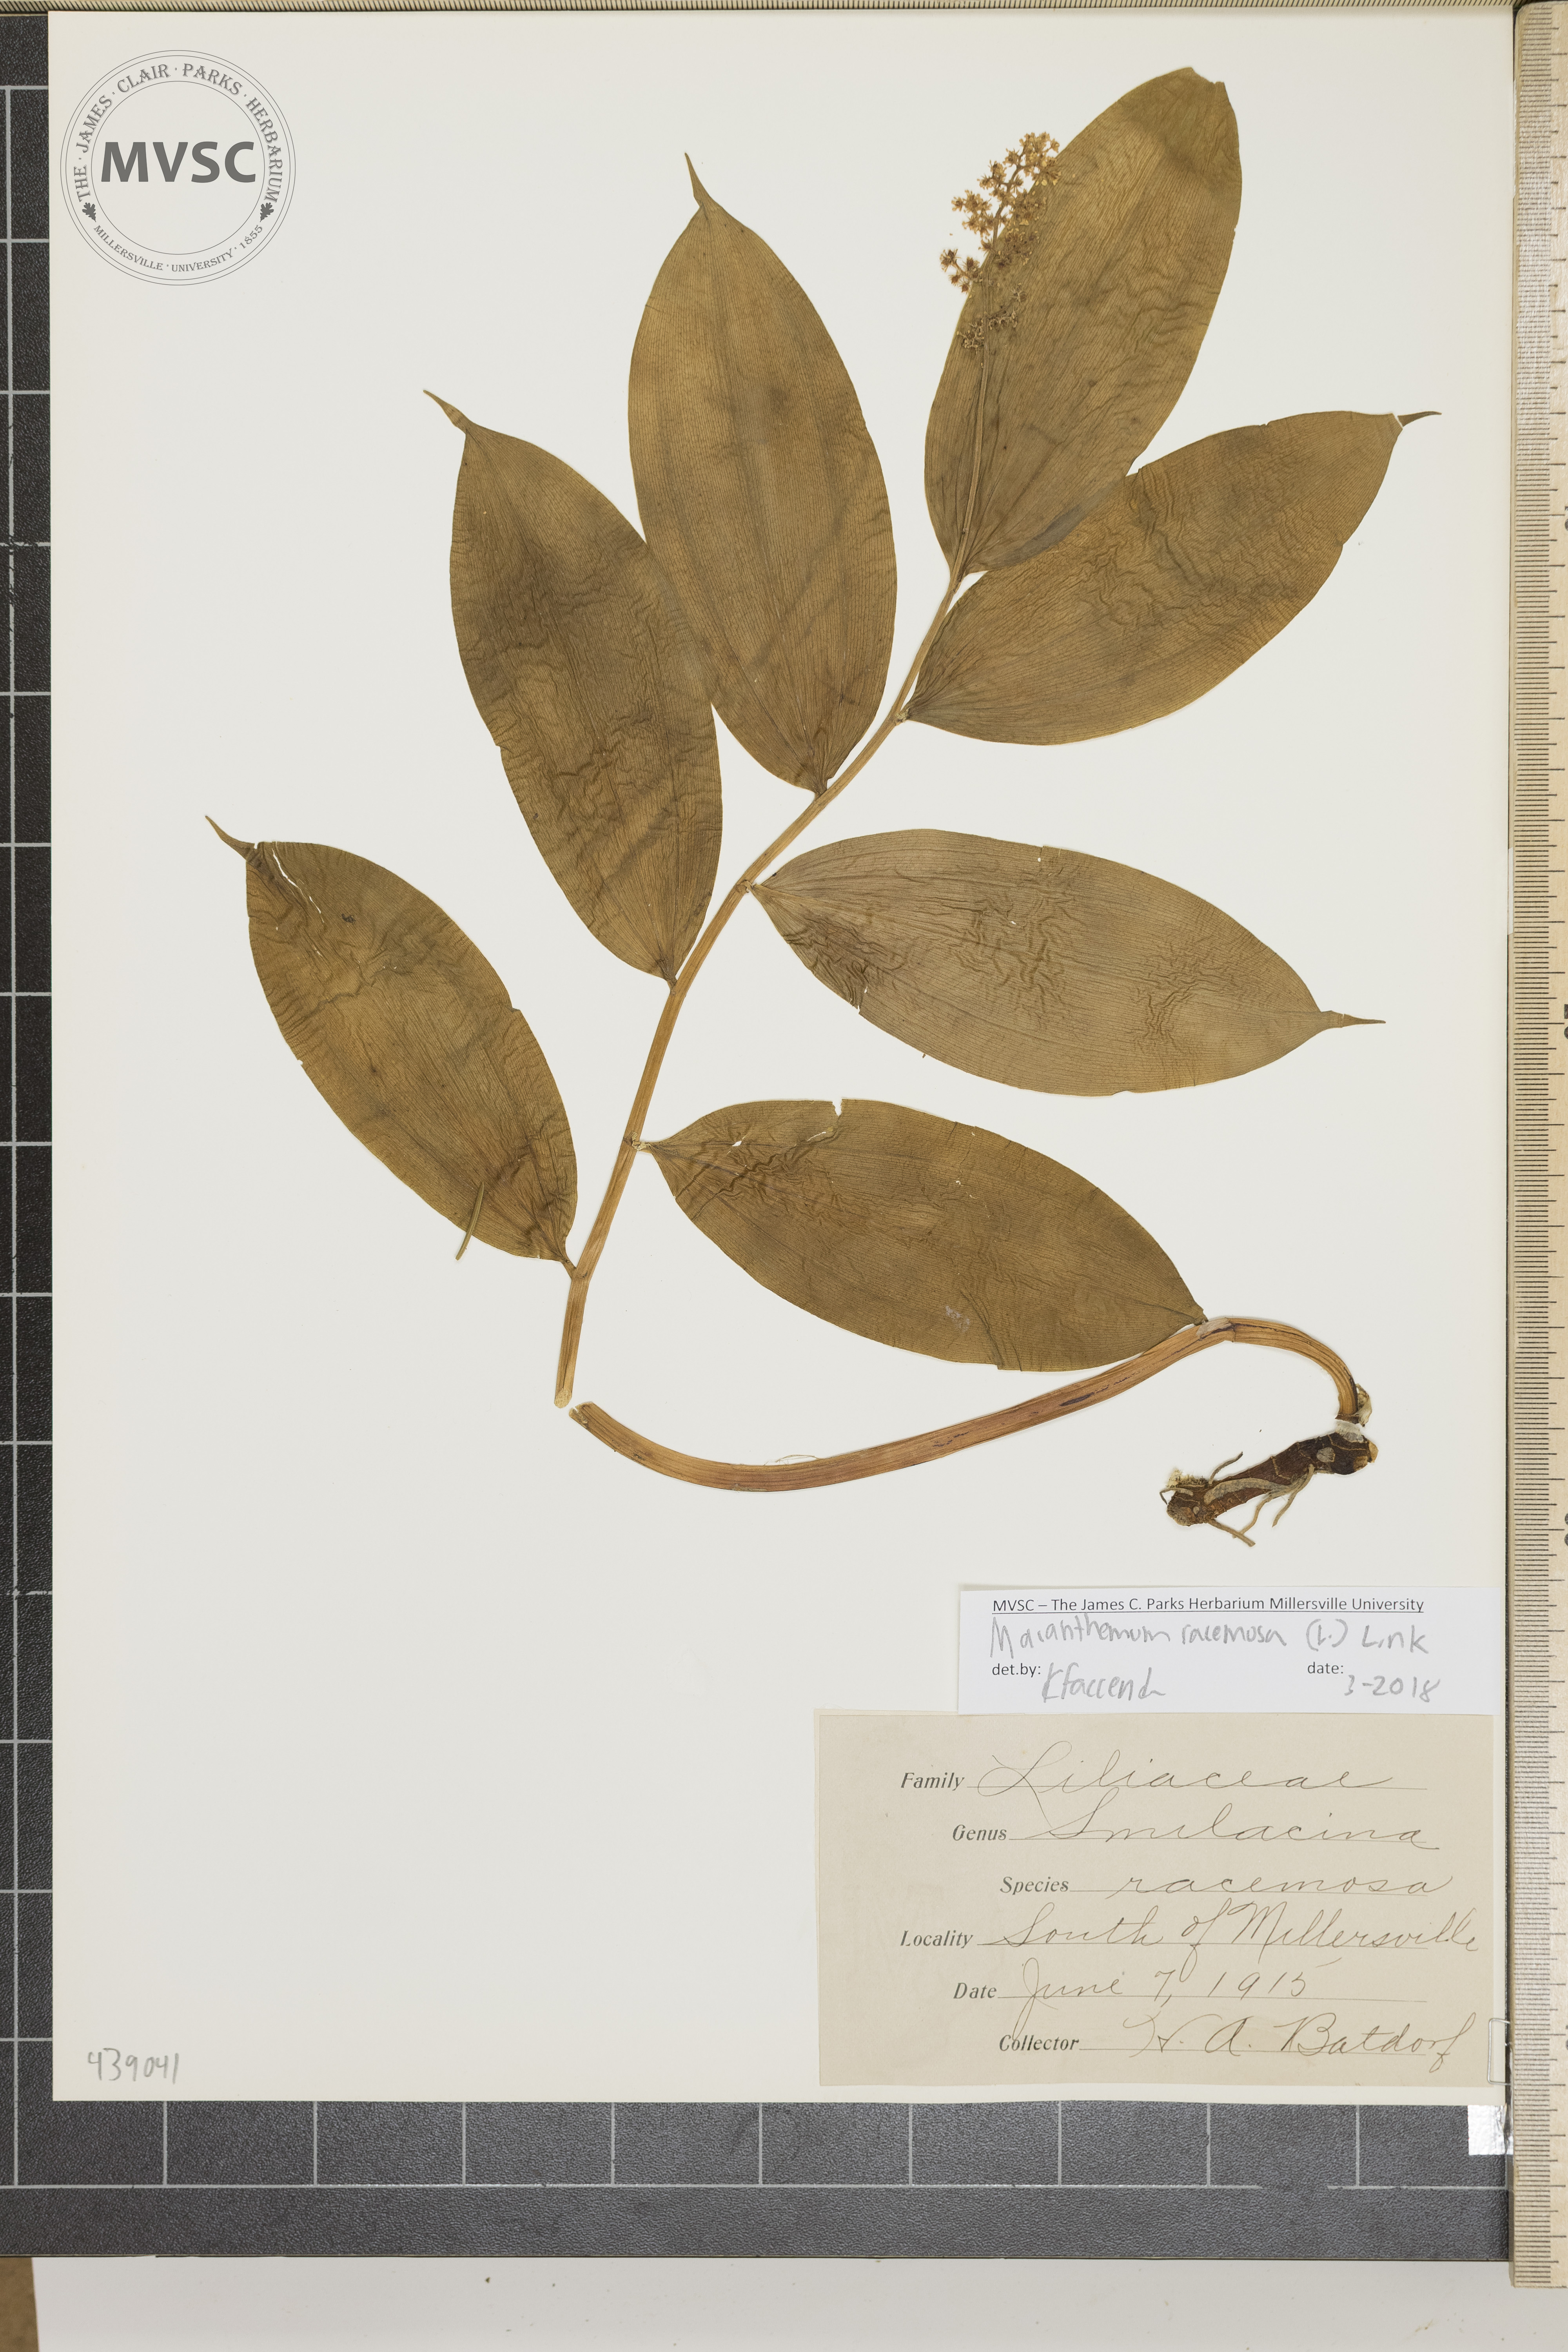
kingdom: Plantae
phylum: Tracheophyta
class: Liliopsida
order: Asparagales
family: Asparagaceae
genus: Maianthemum
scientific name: Maianthemum racemosum
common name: False spikenard
